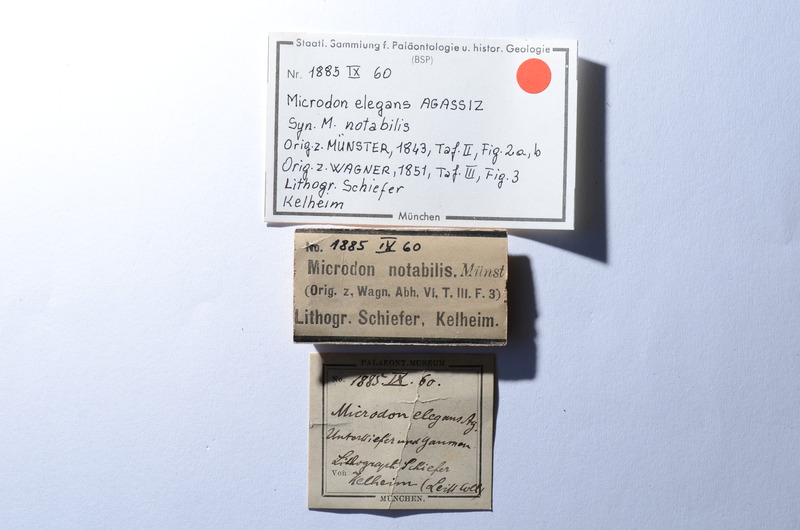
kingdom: Animalia
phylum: Chordata
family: Pycnodontidae
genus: Proscinetes
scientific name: Proscinetes elegans
